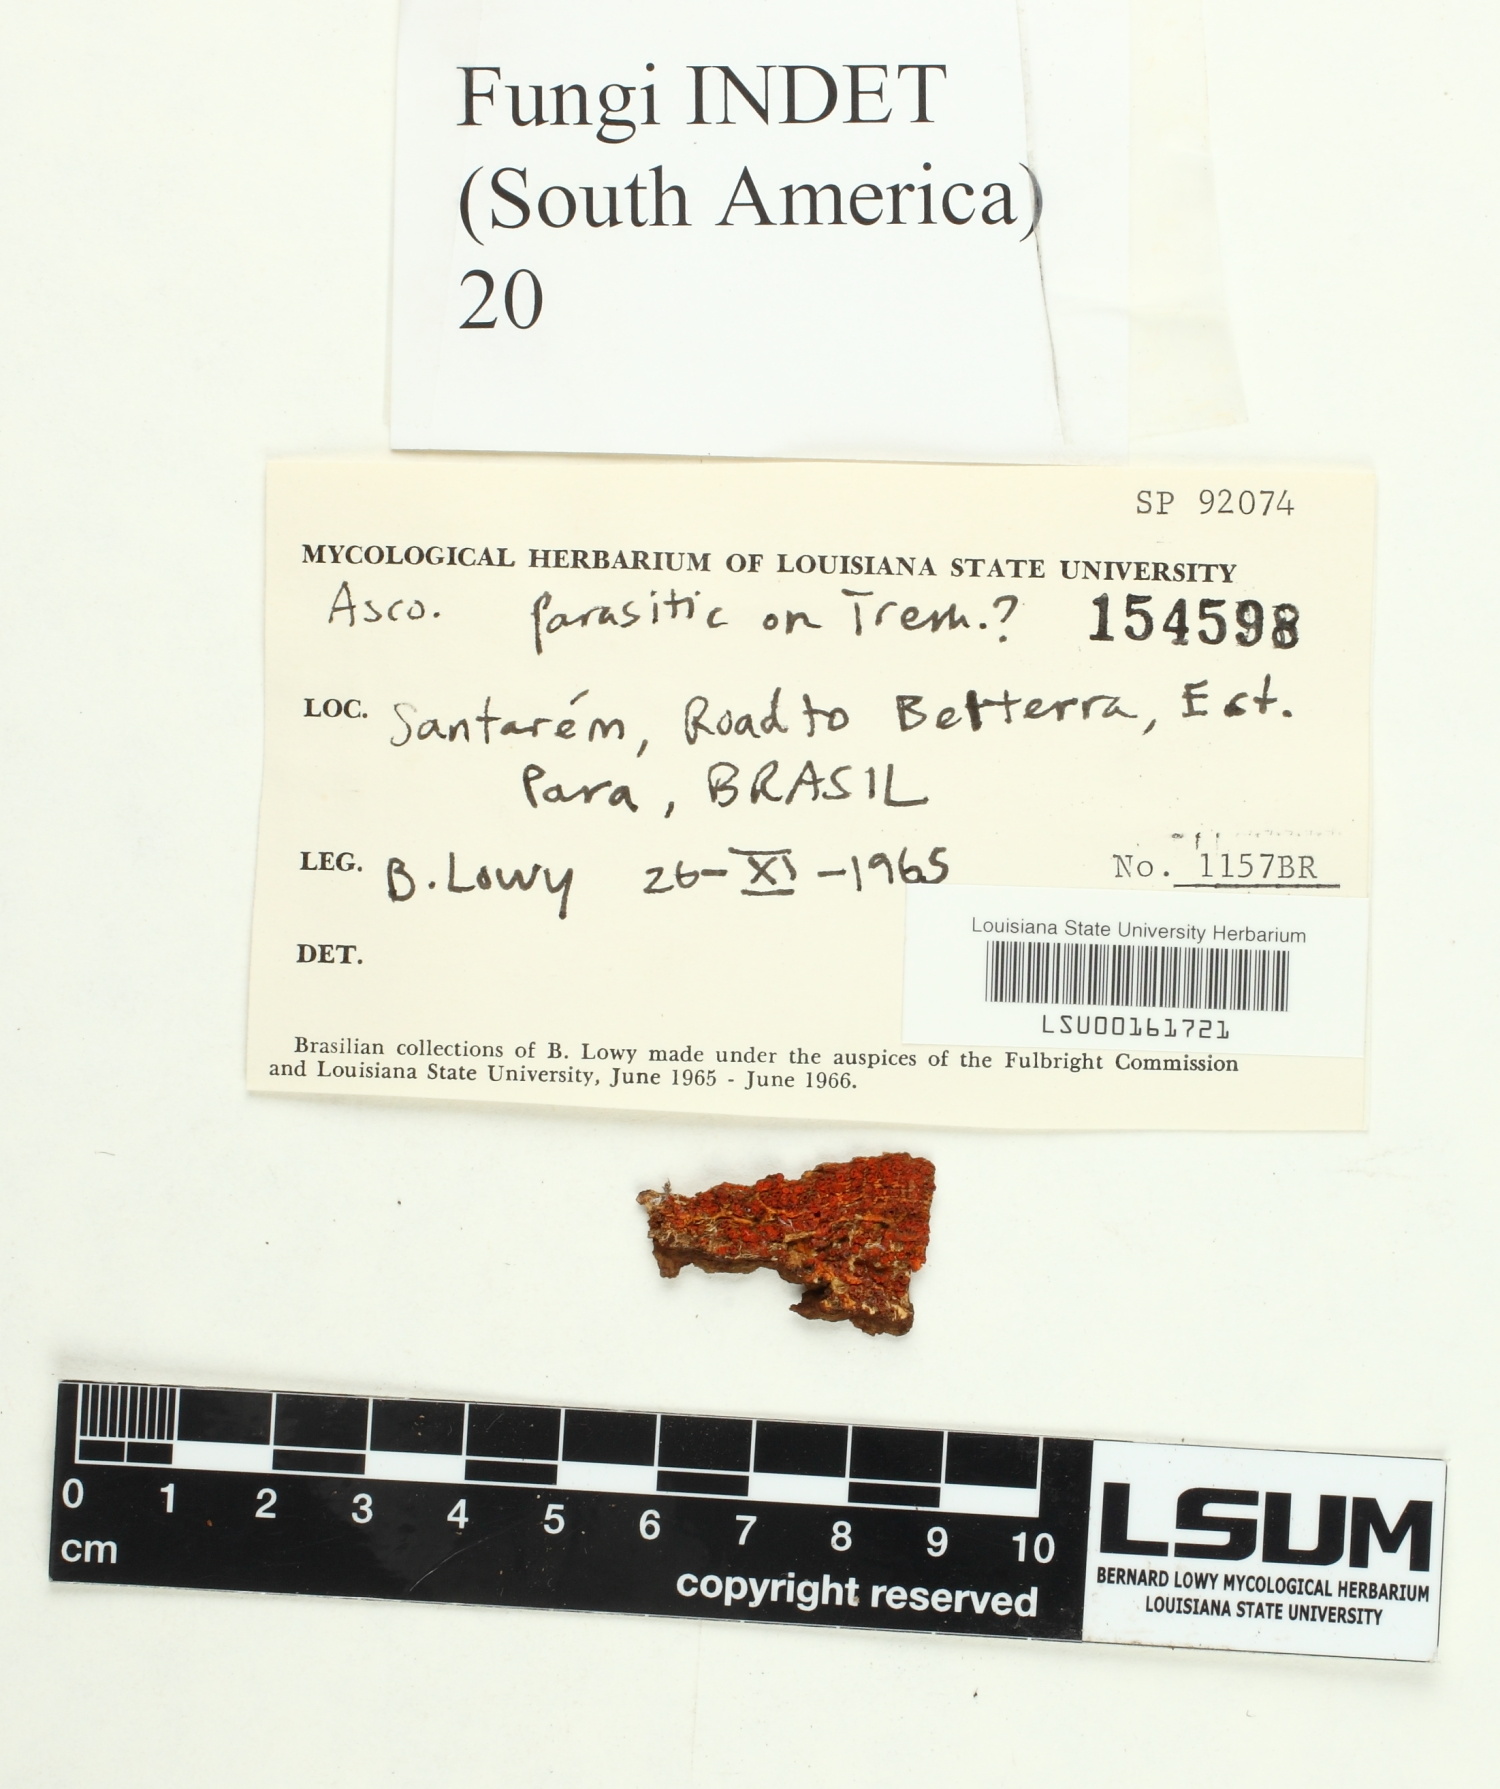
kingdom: Fungi
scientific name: Fungi
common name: Fungi
